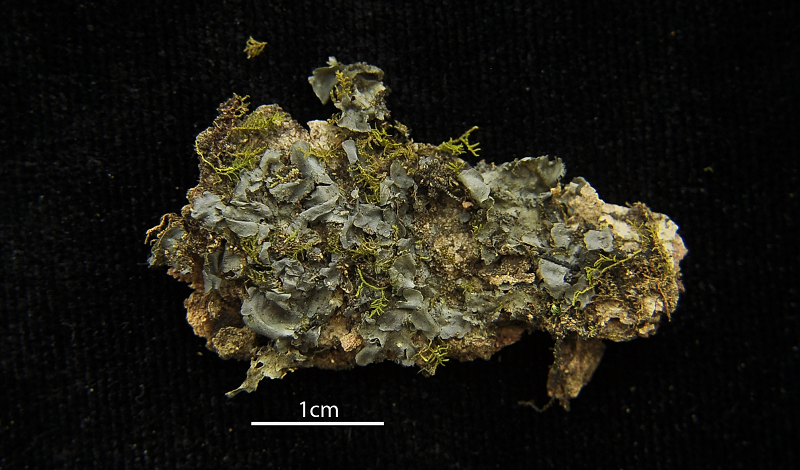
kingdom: Fungi
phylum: Ascomycota
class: Lecanoromycetes
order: Peltigerales
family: Collemataceae
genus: Leptogium
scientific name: Leptogium ulvaceum
